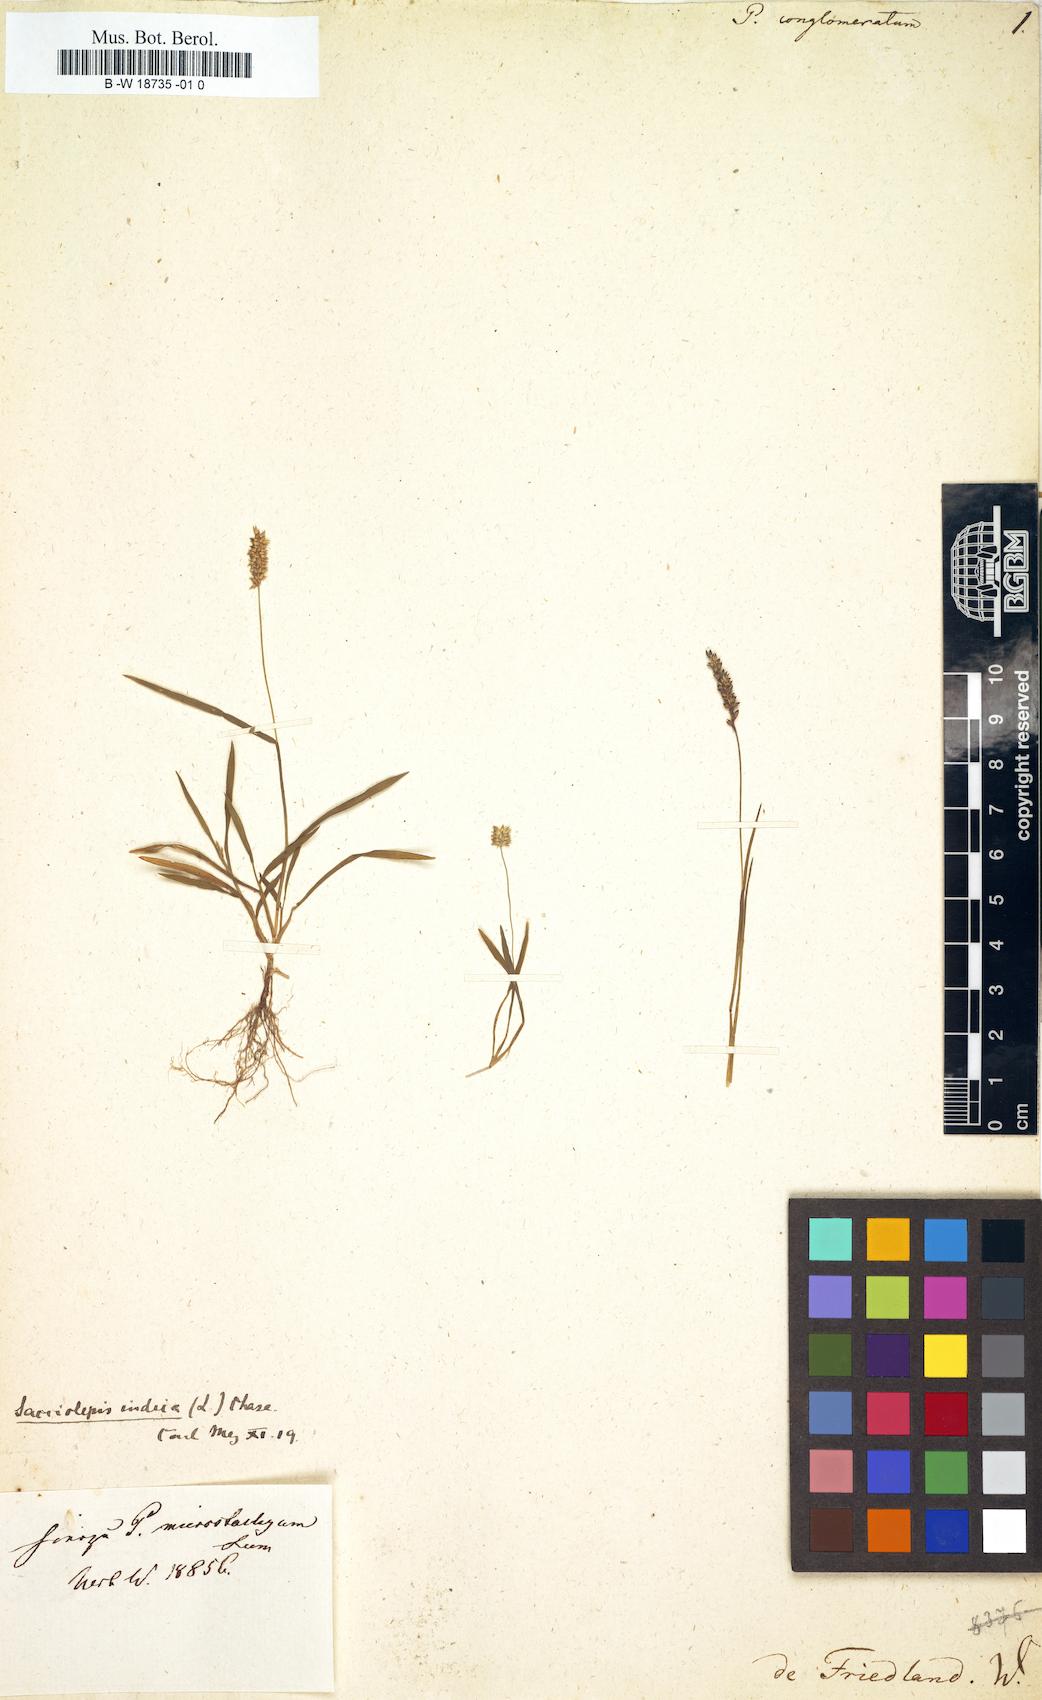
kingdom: Plantae
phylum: Tracheophyta
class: Liliopsida
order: Poales
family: Poaceae
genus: Panicum
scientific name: Panicum
